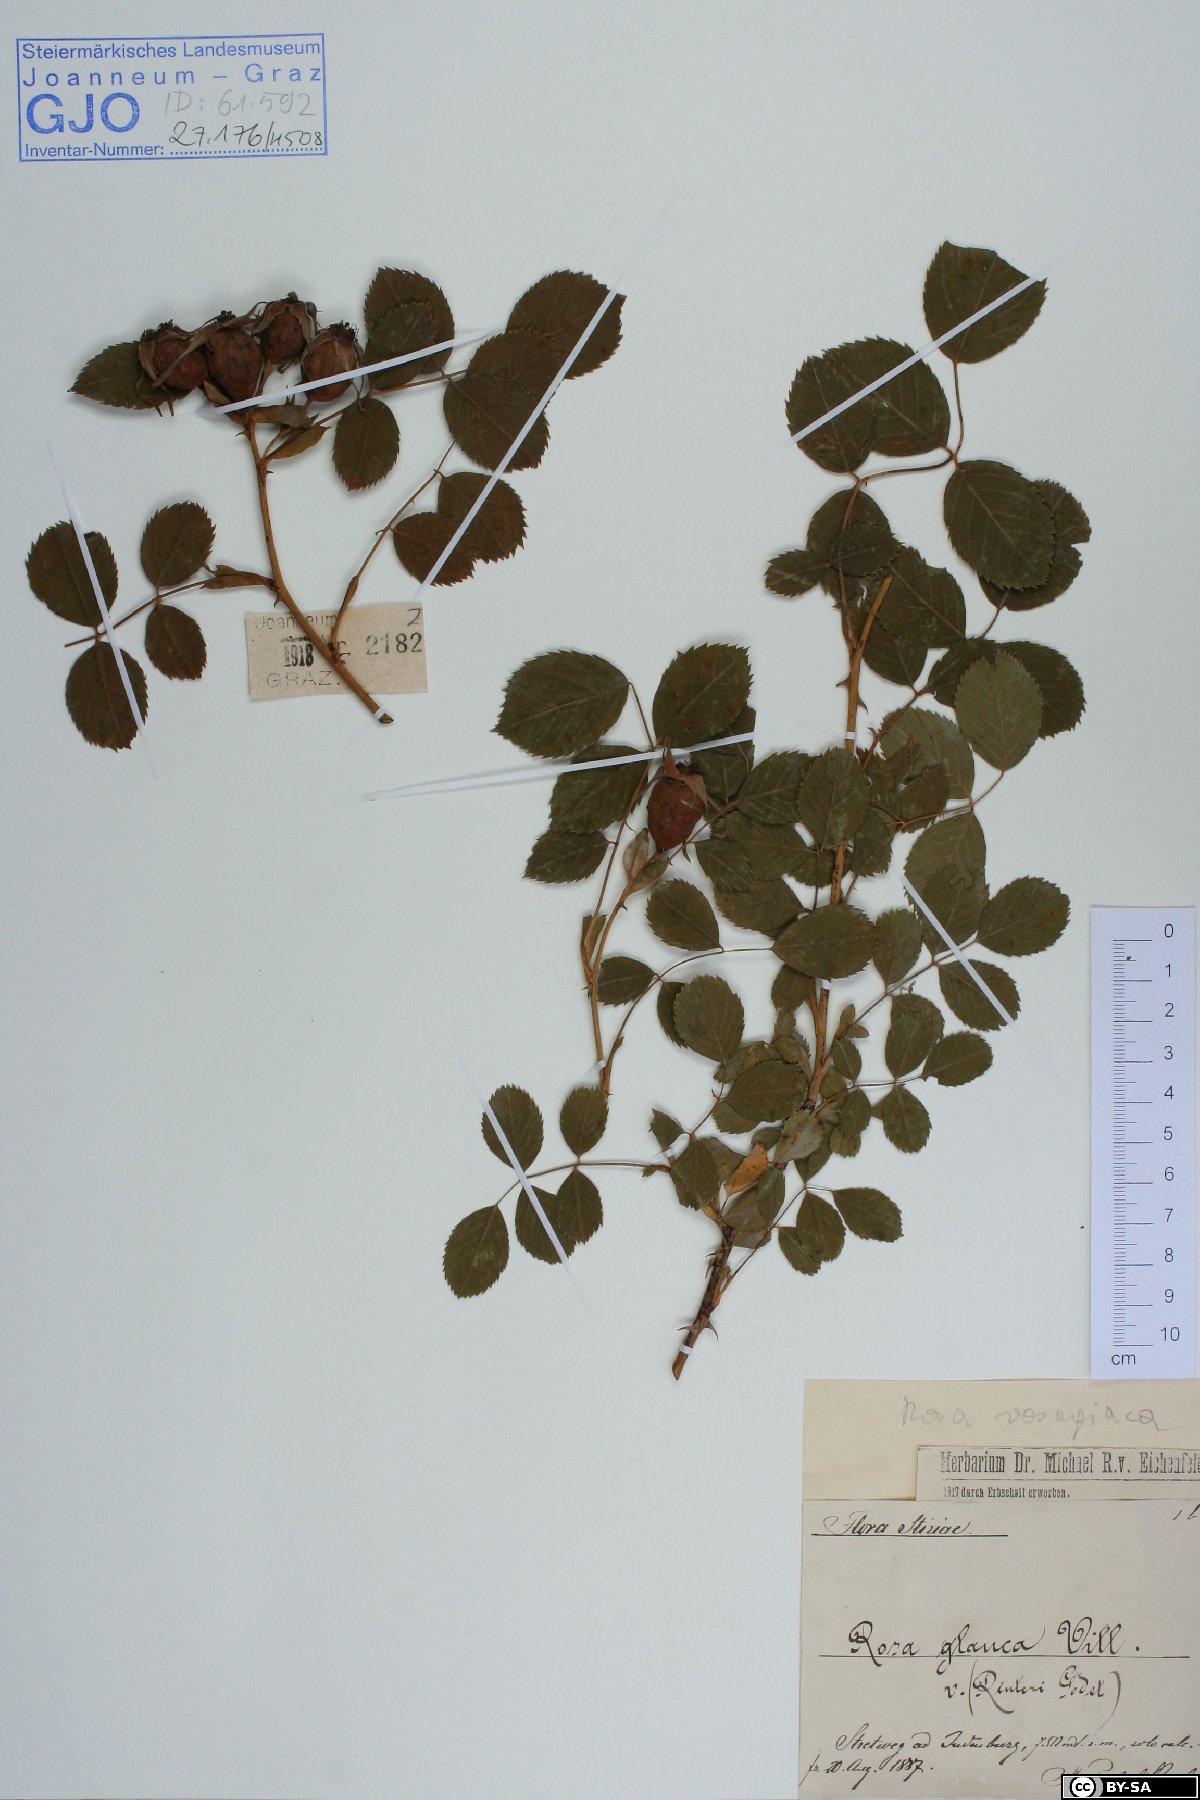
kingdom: Plantae
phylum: Tracheophyta
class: Magnoliopsida
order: Rosales
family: Rosaceae
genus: Rosa
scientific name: Rosa vosagiaca
